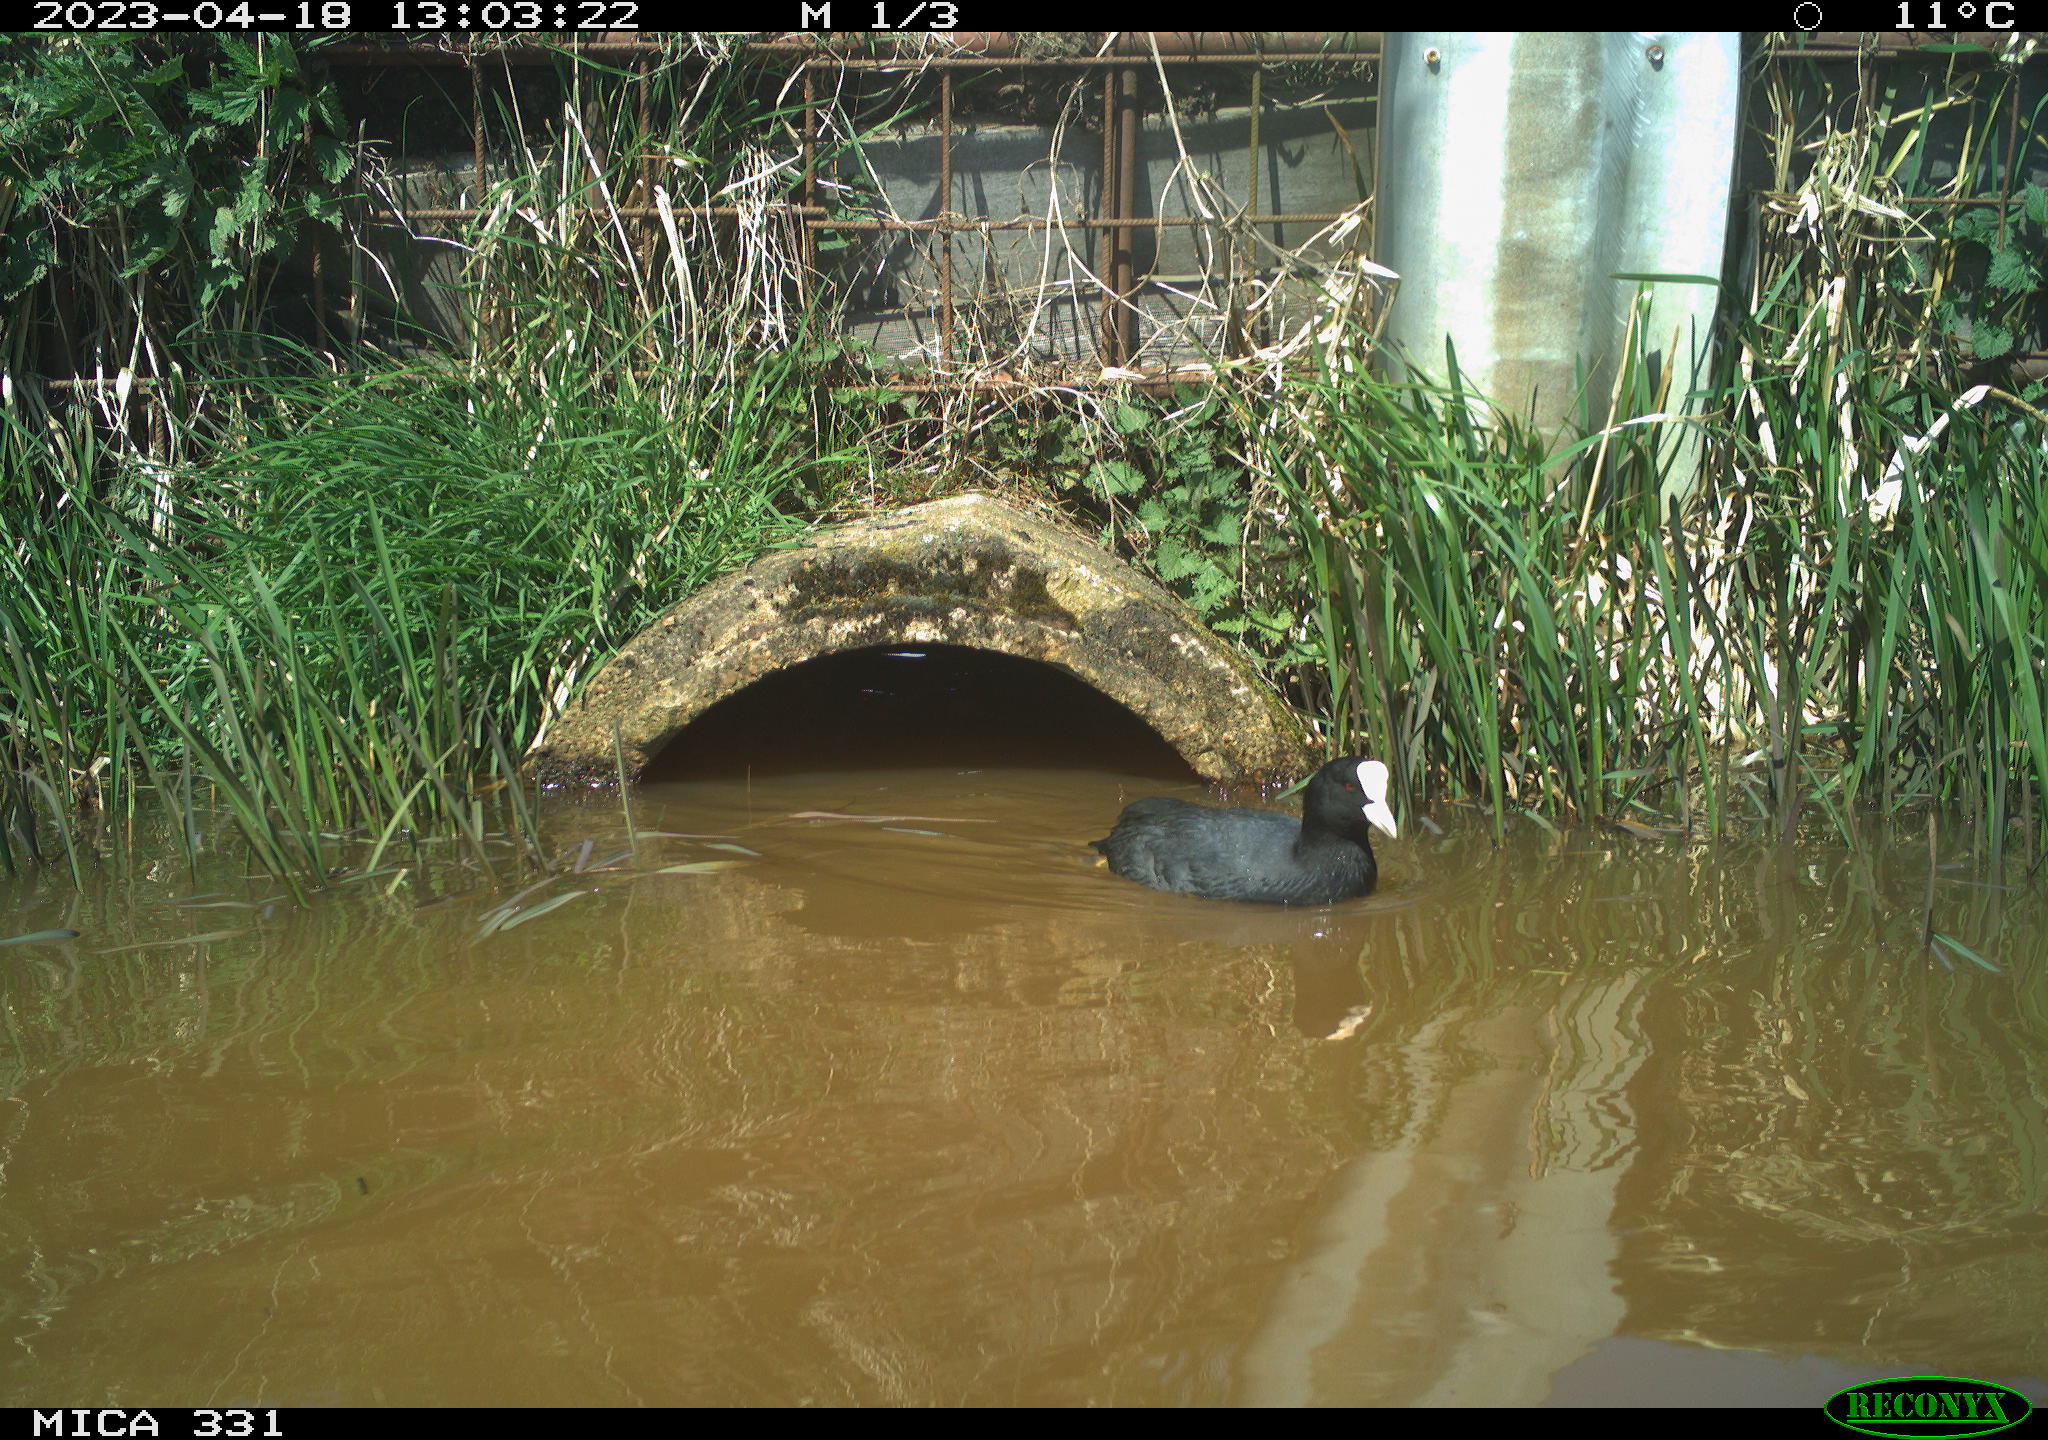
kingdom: Animalia
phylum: Chordata
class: Aves
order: Gruiformes
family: Rallidae
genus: Gallinula
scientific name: Gallinula chloropus
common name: Common moorhen
